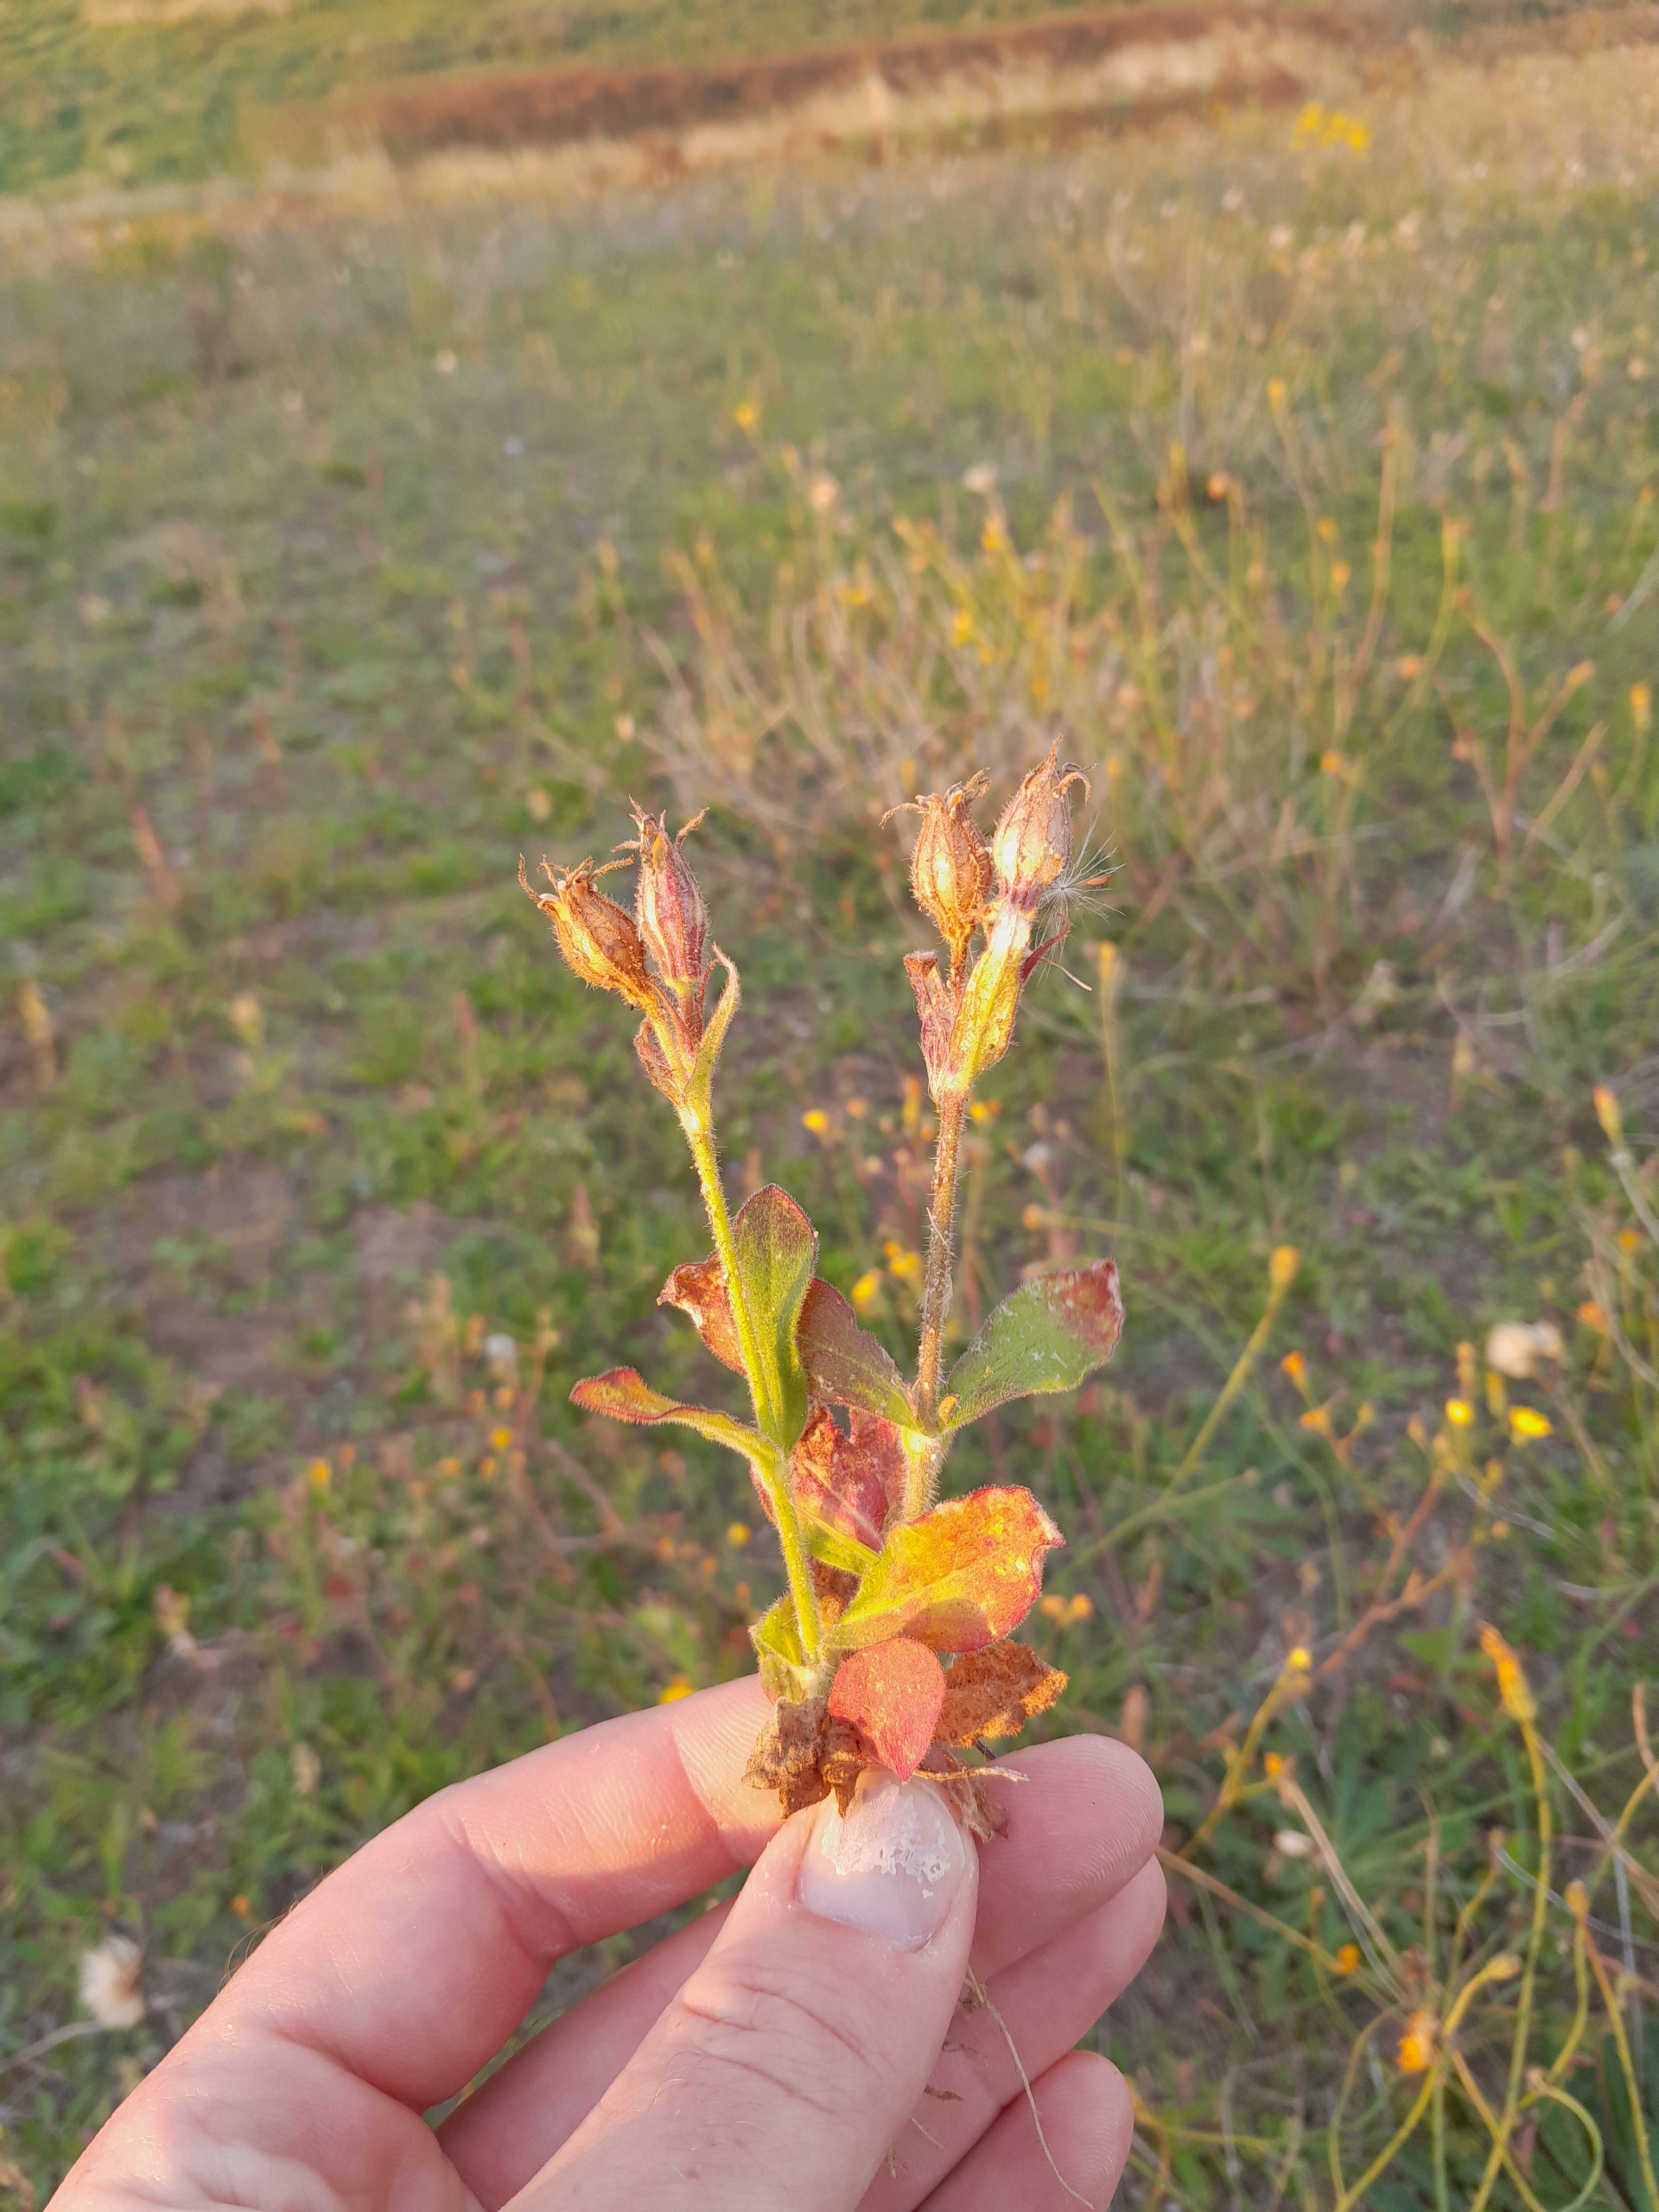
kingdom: Plantae
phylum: Tracheophyta
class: Magnoliopsida
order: Caryophyllales
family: Caryophyllaceae
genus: Silene
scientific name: Silene noctiflora
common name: Nat-limurt
